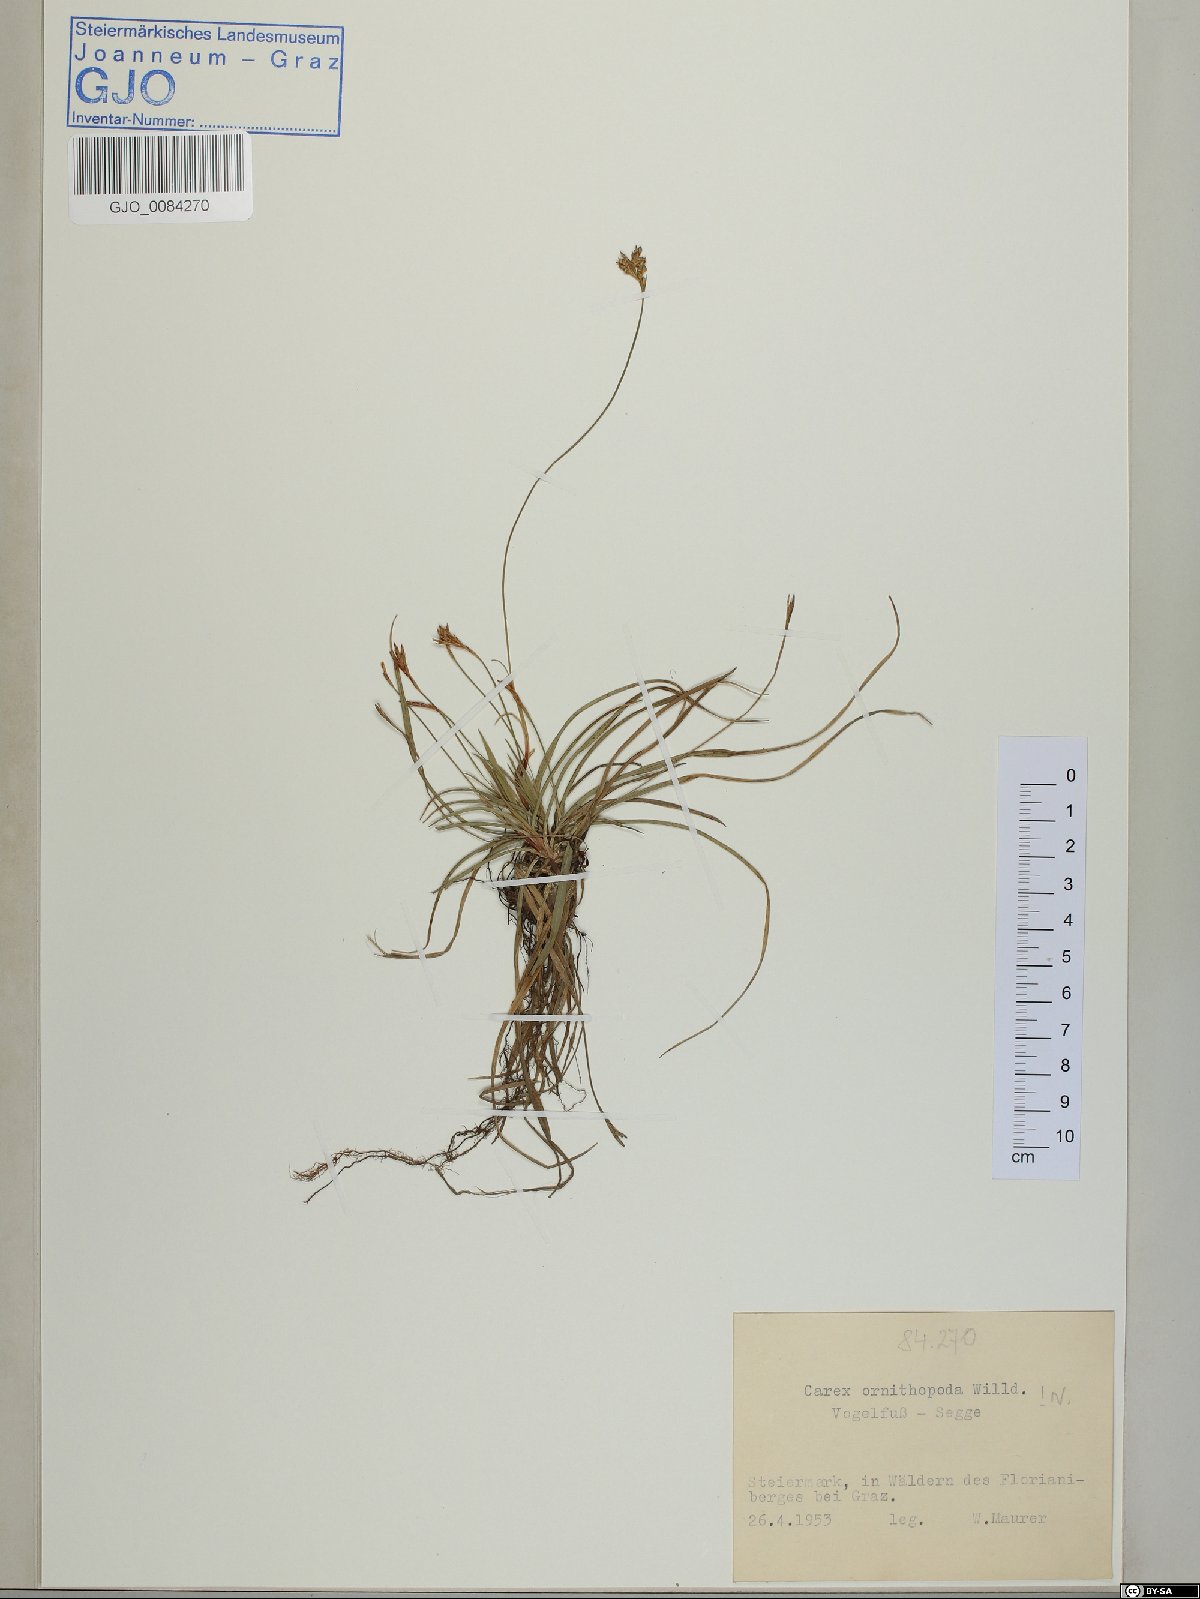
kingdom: Plantae
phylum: Tracheophyta
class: Liliopsida
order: Poales
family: Cyperaceae
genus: Carex
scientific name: Carex ornithopoda
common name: Bird's-foot sedge
